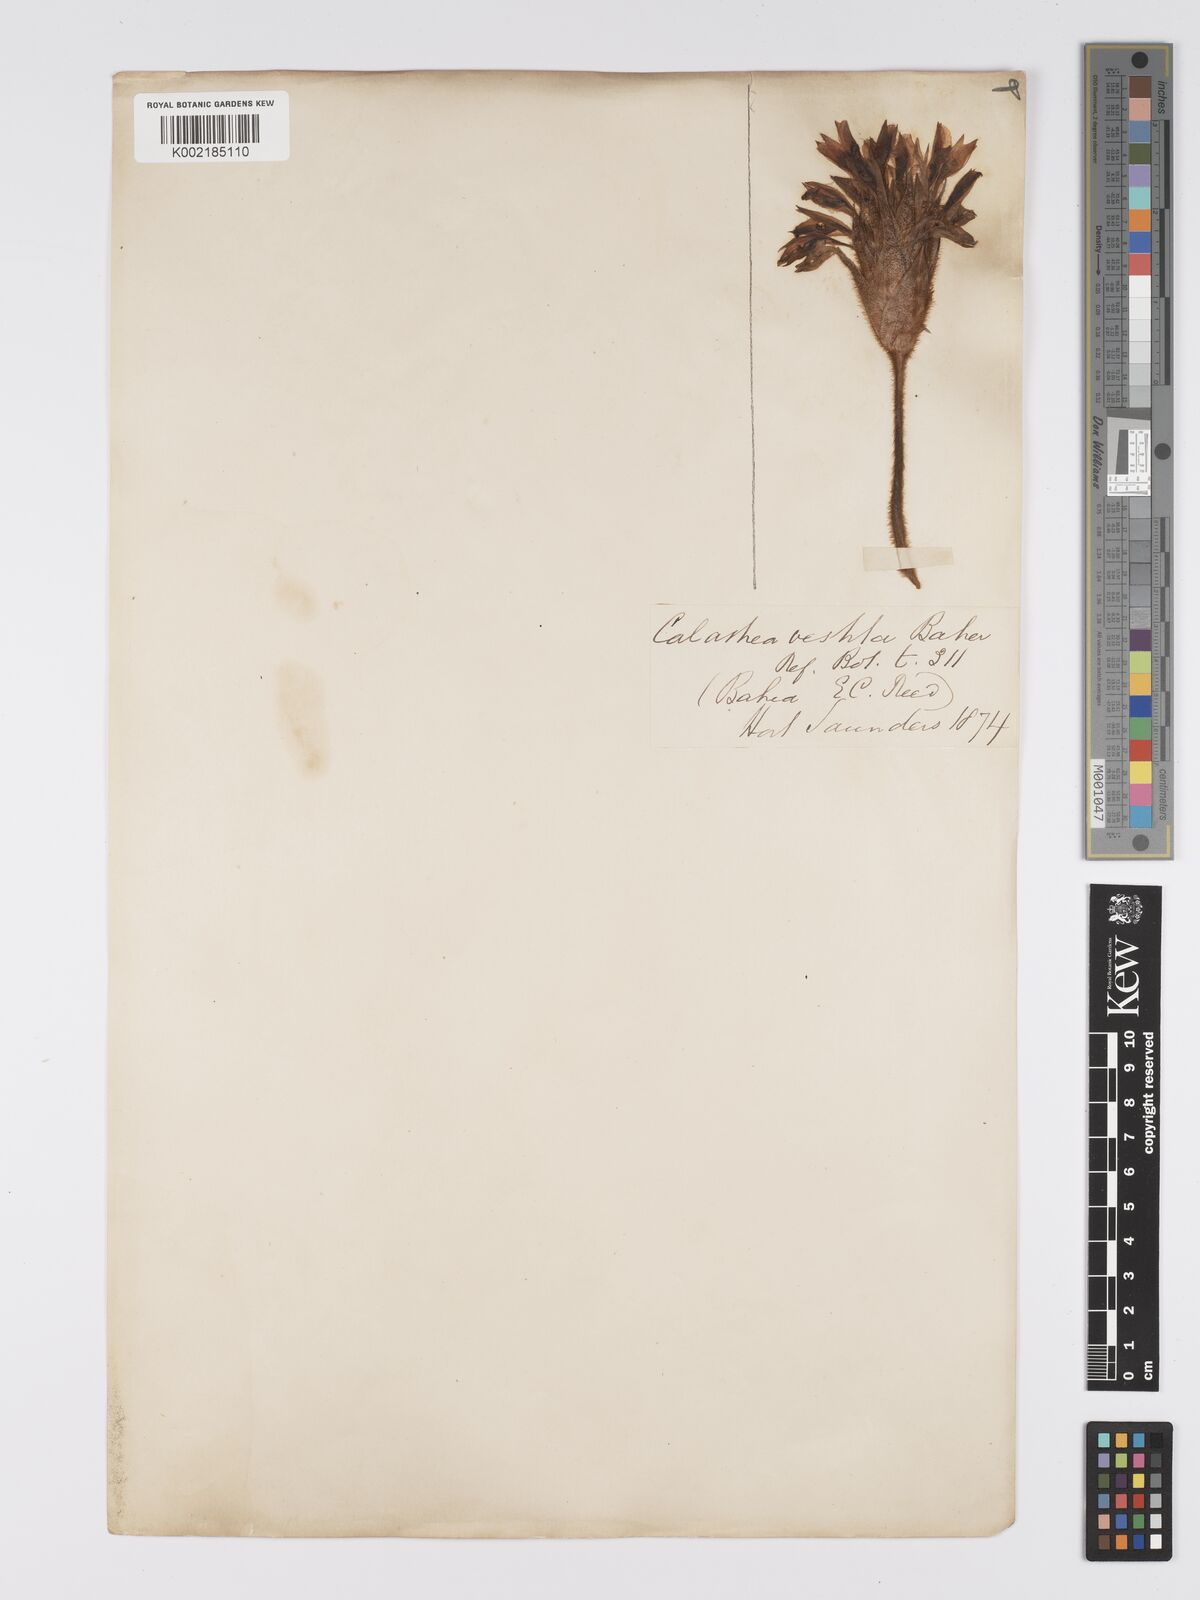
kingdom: Plantae
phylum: Tracheophyta
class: Liliopsida
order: Zingiberales
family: Marantaceae
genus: Goeppertia
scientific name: Goeppertia varians
